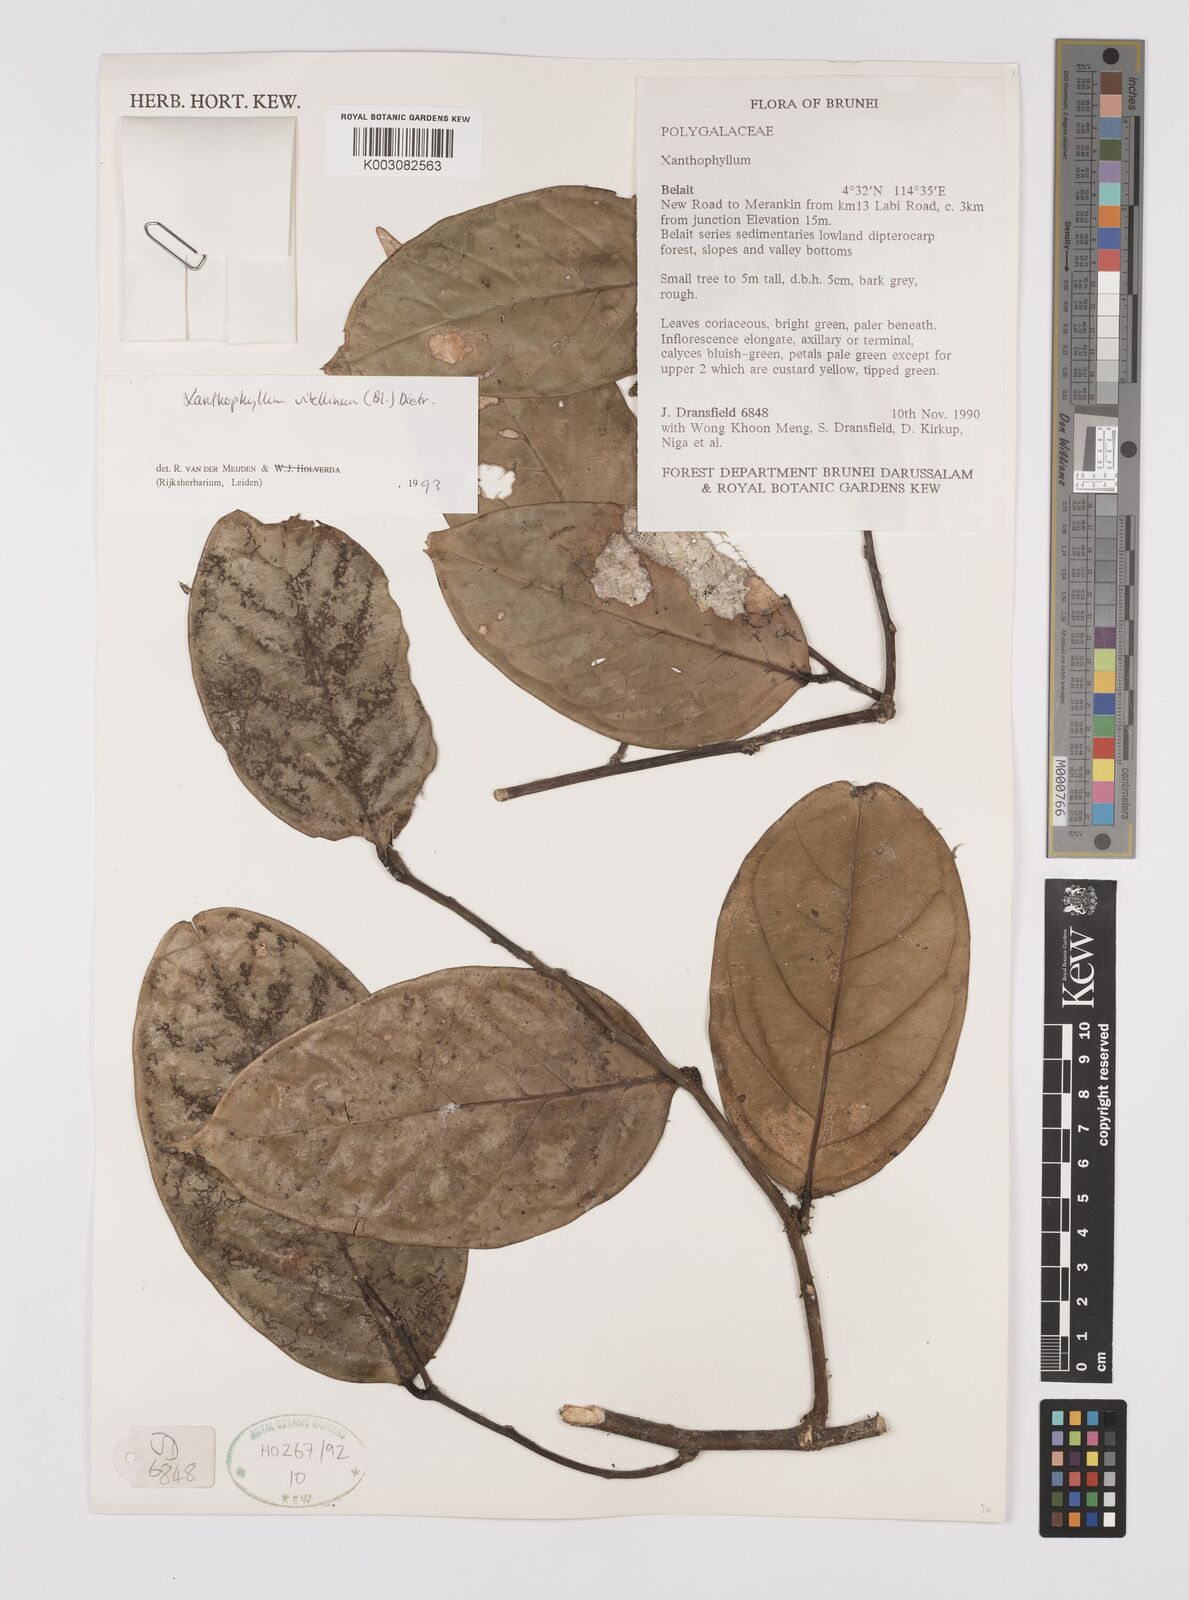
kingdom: Plantae
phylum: Tracheophyta
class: Magnoliopsida
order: Fabales
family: Polygalaceae
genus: Xanthophyllum
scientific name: Xanthophyllum vitellinum
